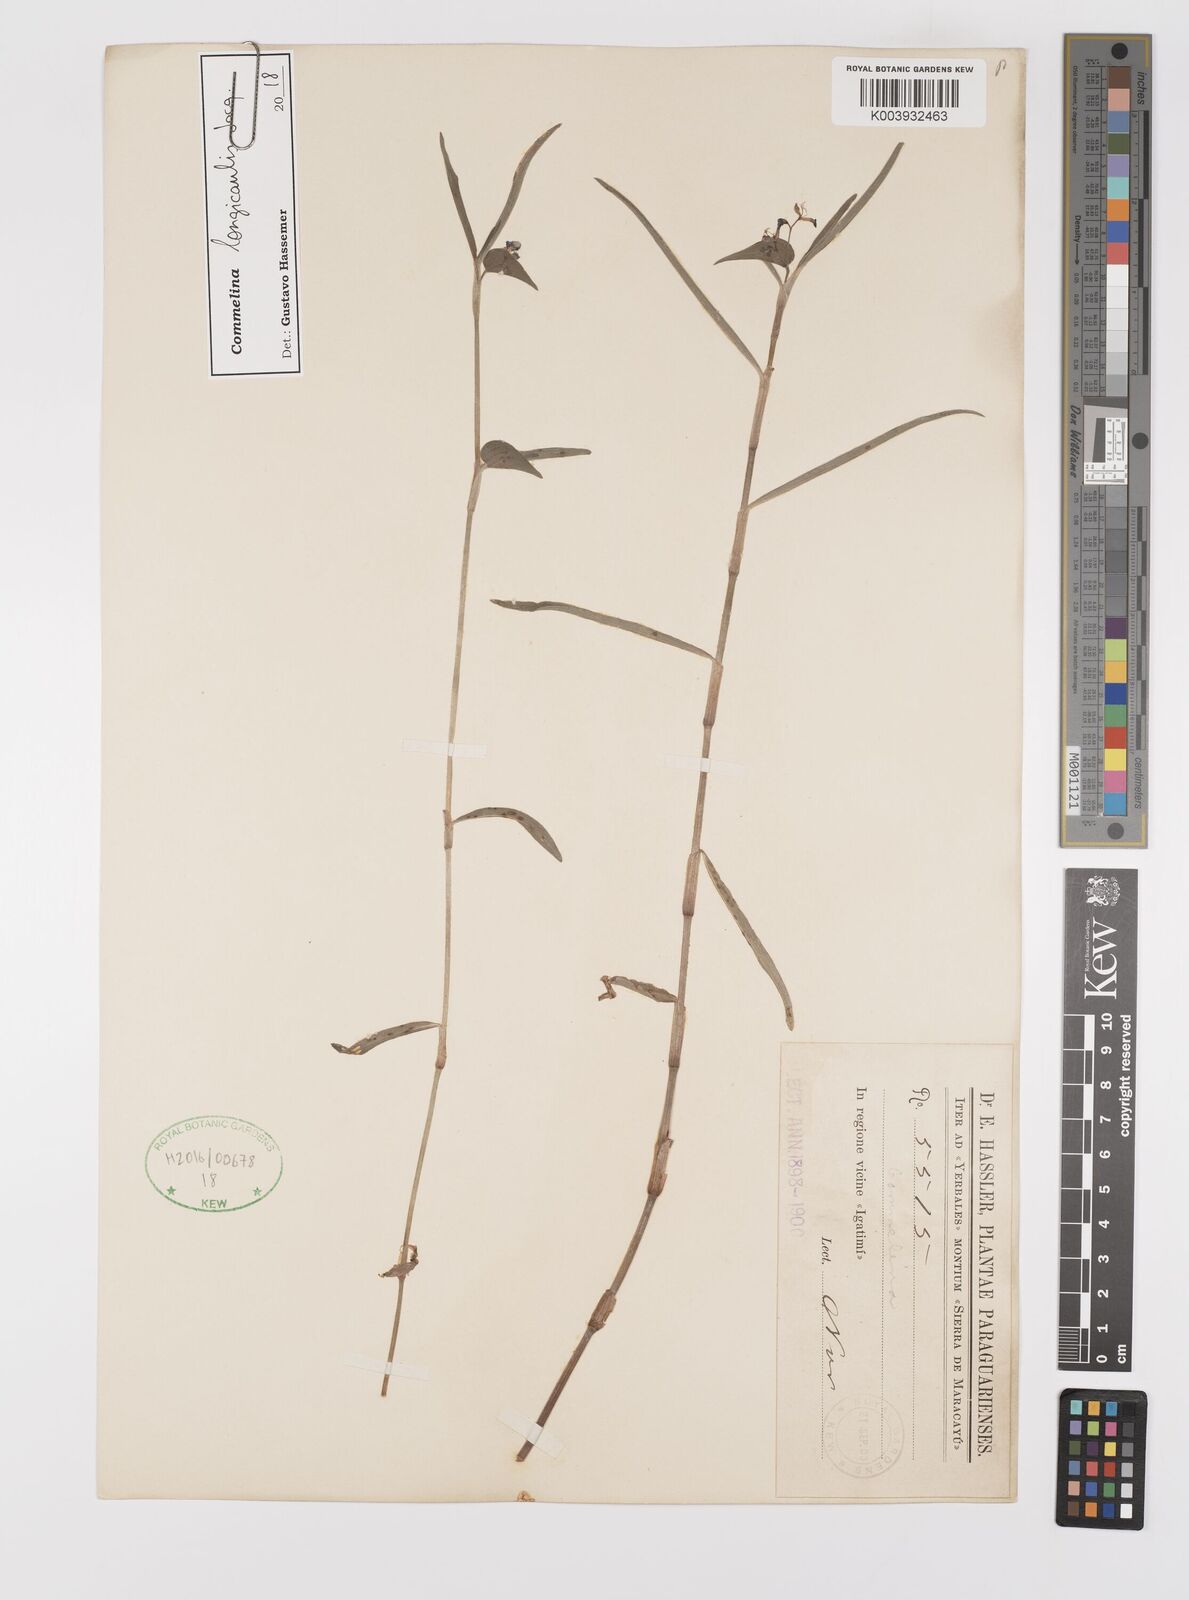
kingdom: Plantae
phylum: Tracheophyta
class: Liliopsida
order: Commelinales
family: Commelinaceae
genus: Commelina
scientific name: Commelina diffusa
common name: Climbing dayflower
